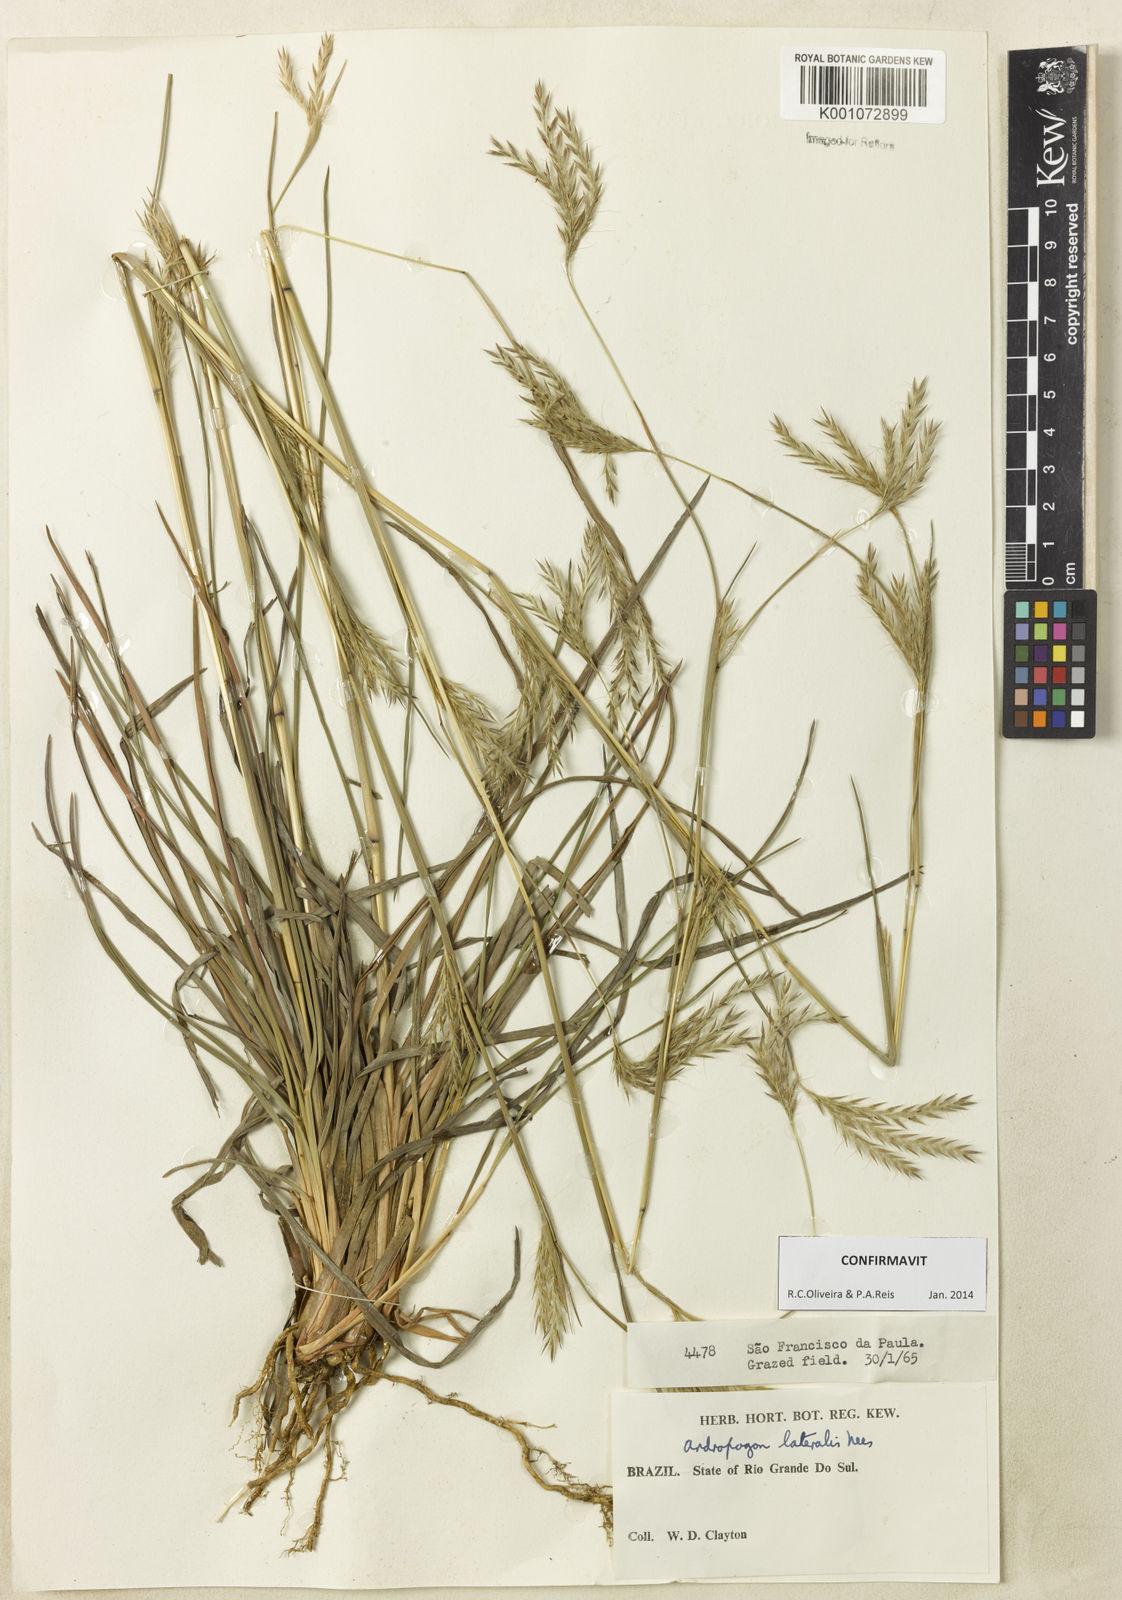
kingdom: Plantae
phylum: Tracheophyta
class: Liliopsida
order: Poales
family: Poaceae
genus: Andropogon
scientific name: Andropogon lateralis
